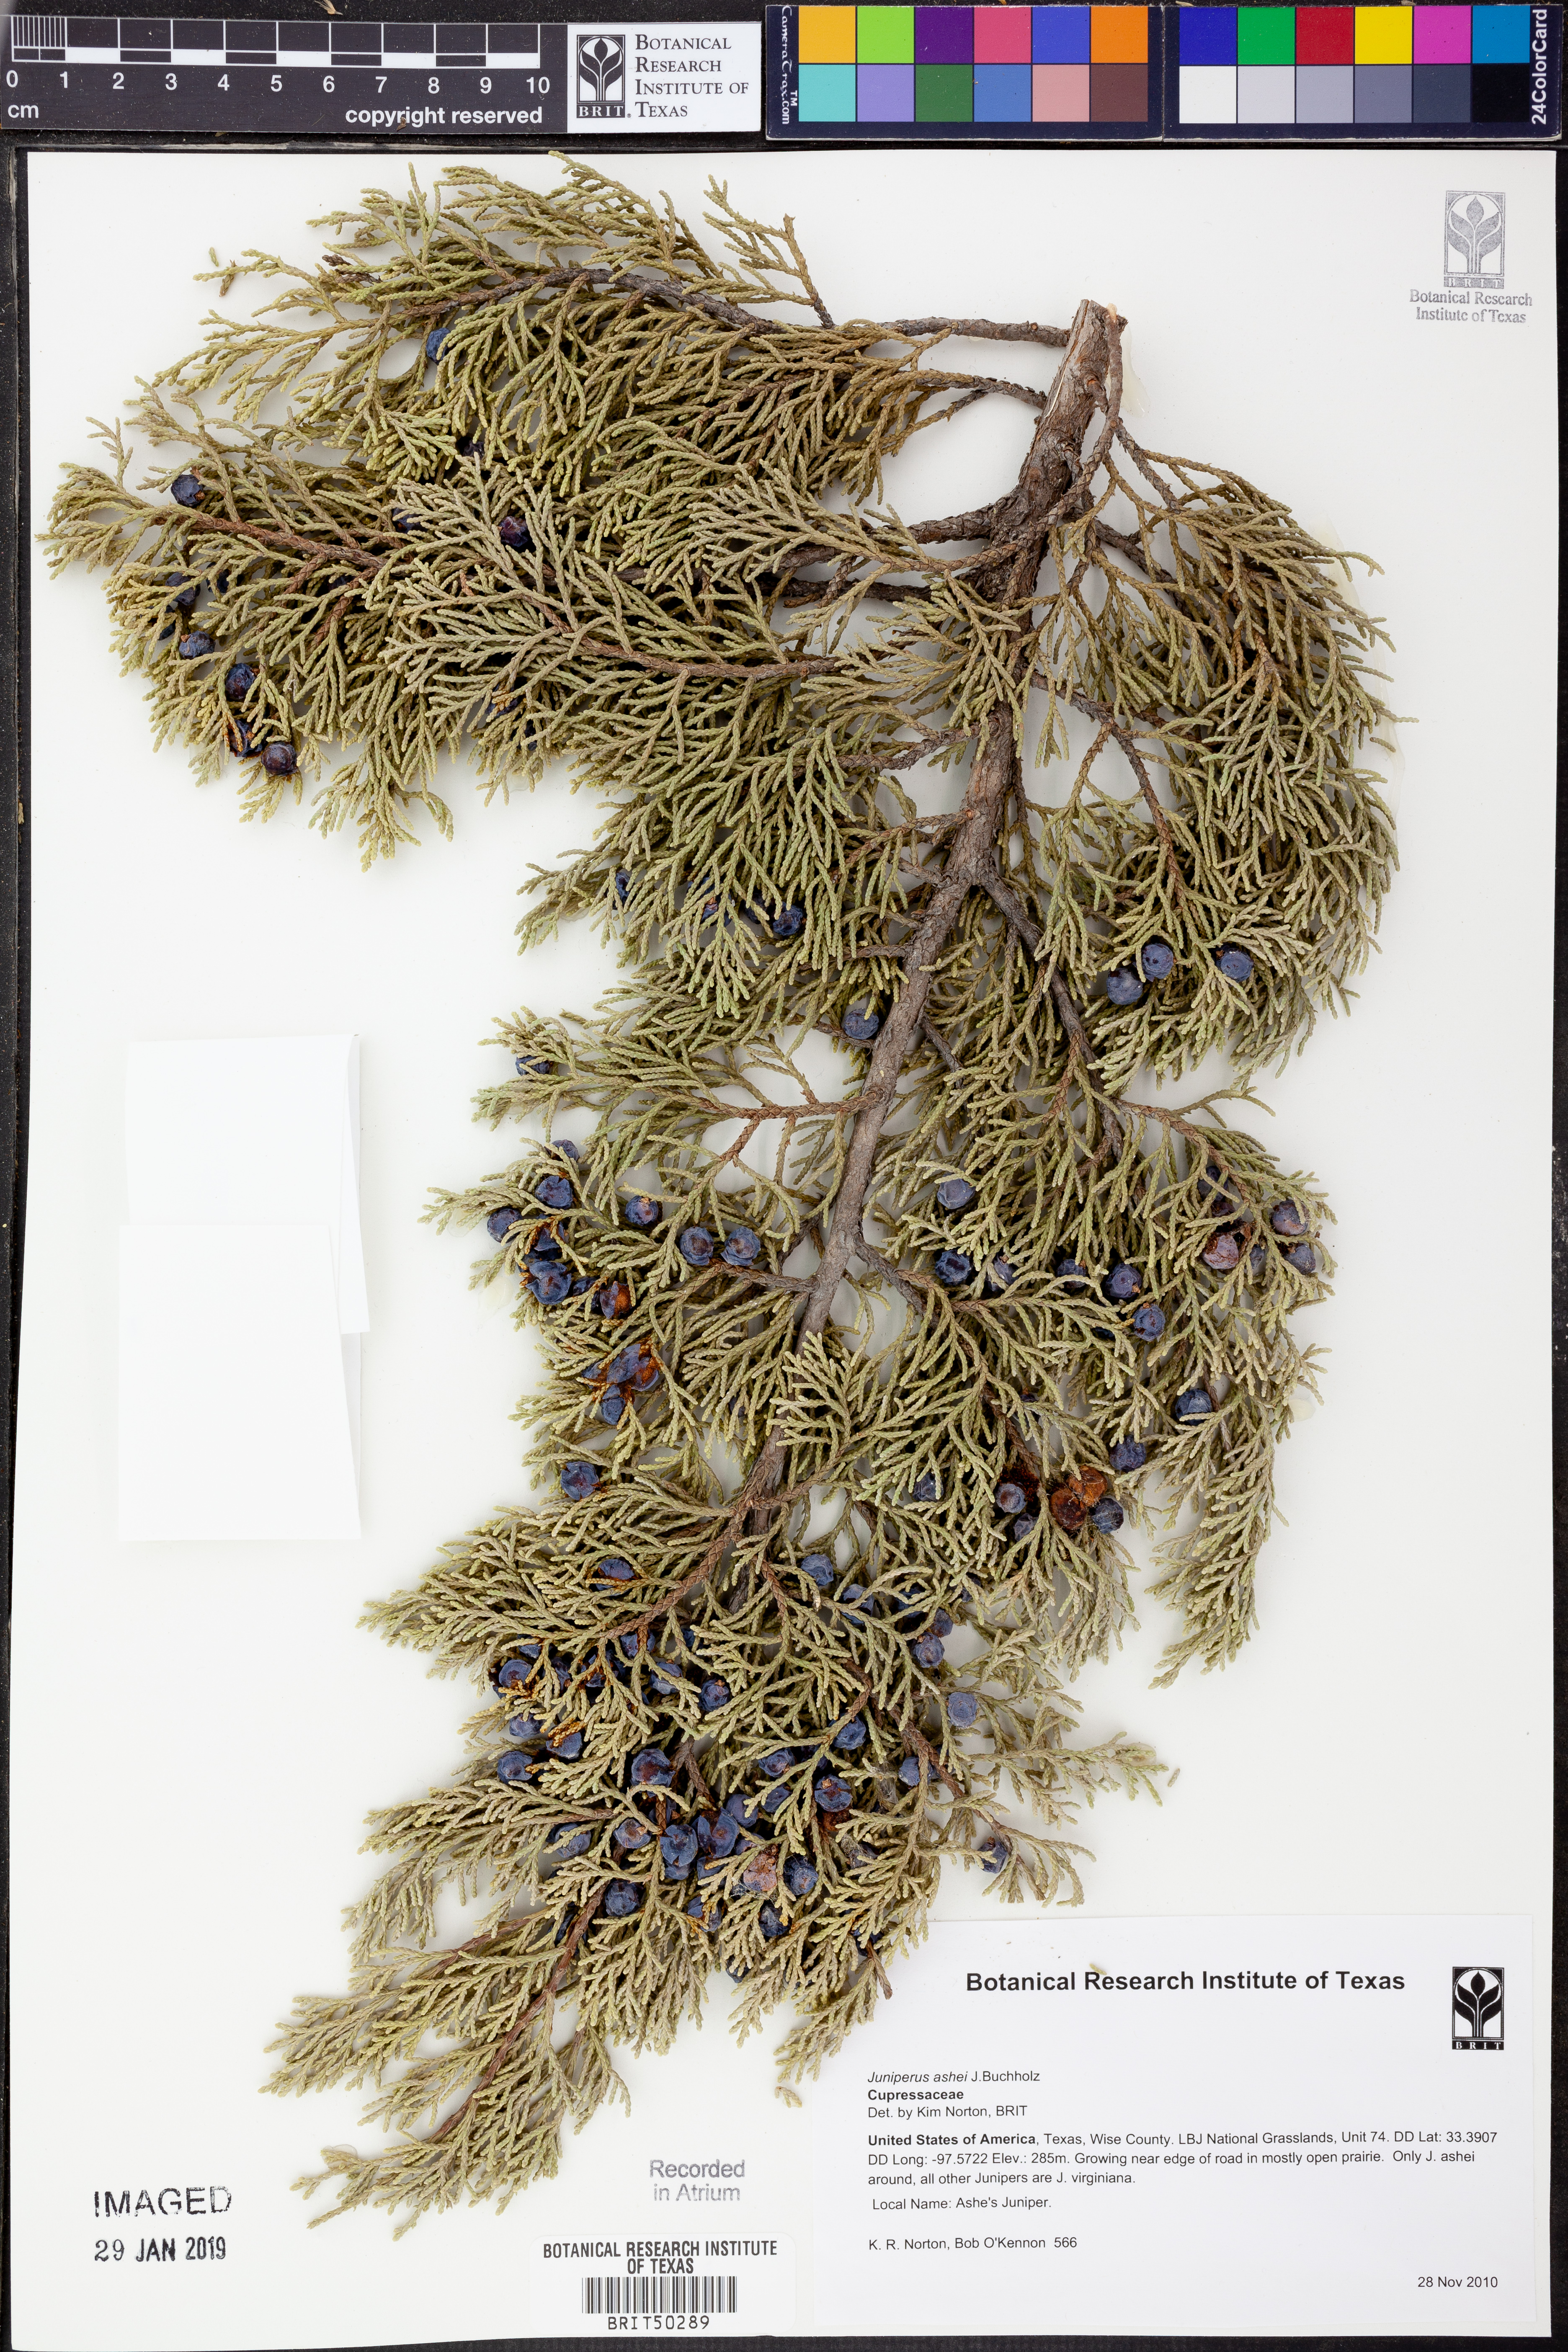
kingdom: Plantae
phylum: Tracheophyta
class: Pinopsida
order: Pinales
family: Cupressaceae
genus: Juniperus
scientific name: Juniperus ashei
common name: Mexican juniper
